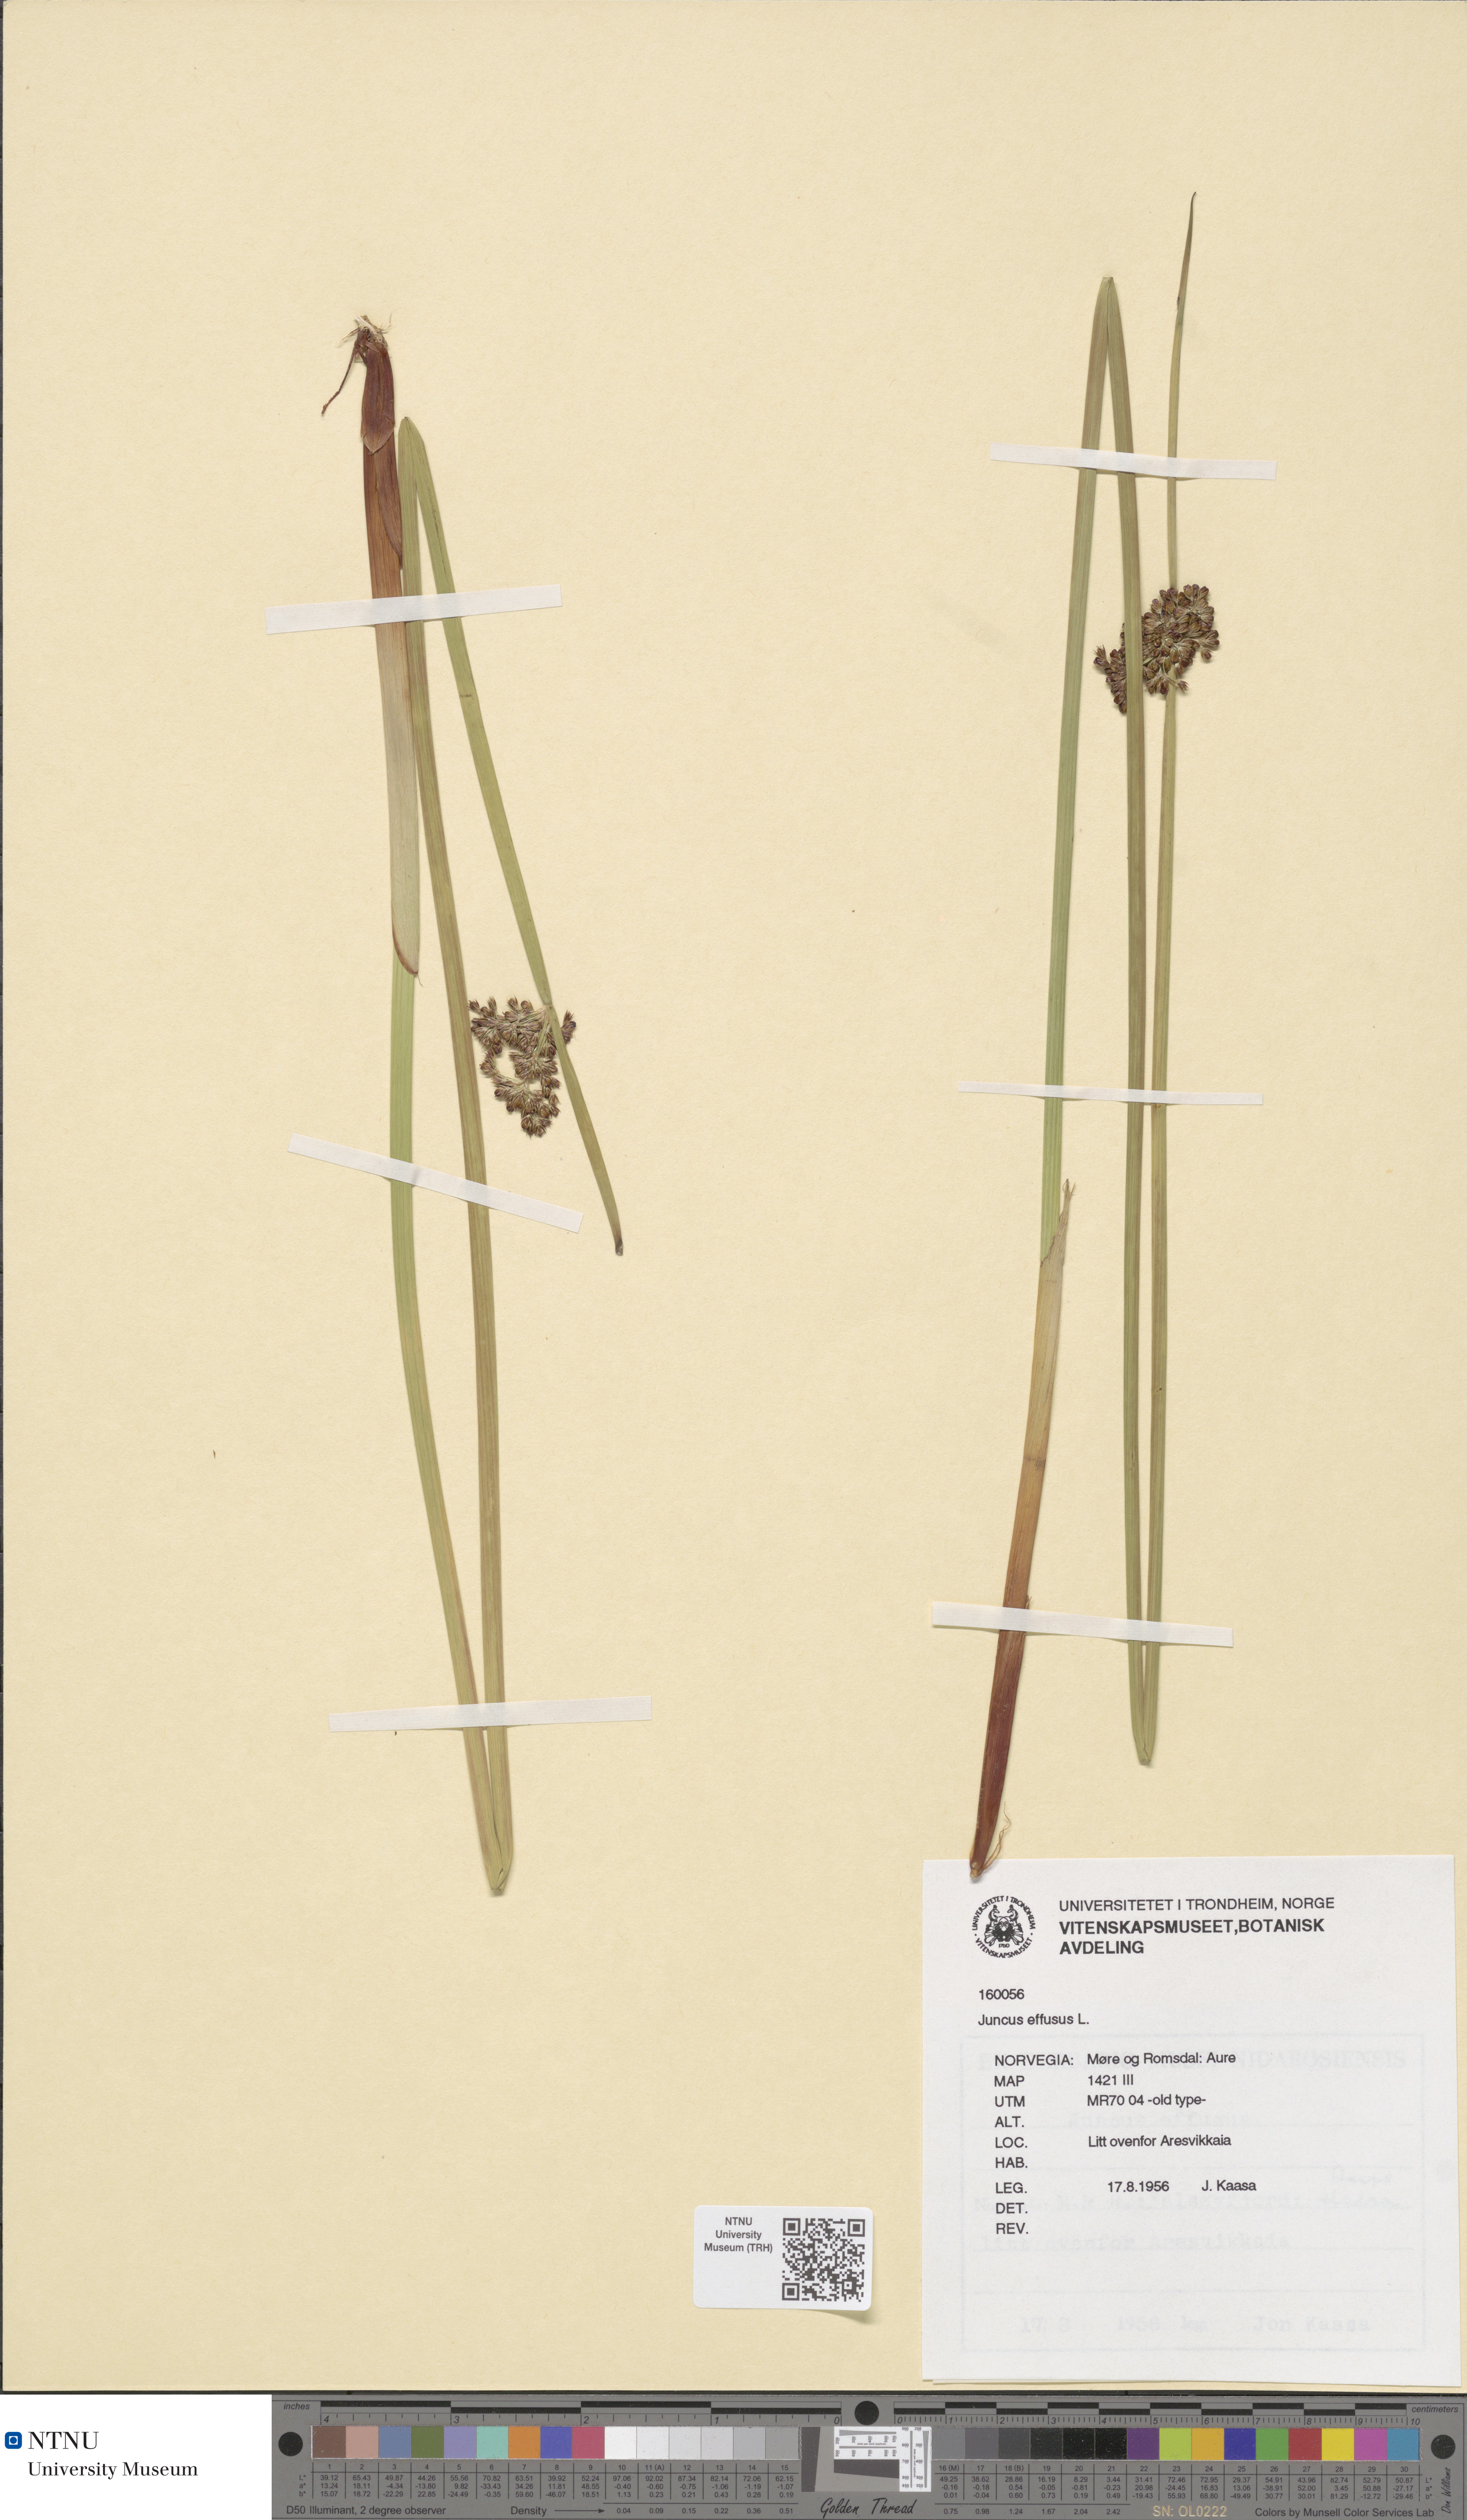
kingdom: Plantae
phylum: Tracheophyta
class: Liliopsida
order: Poales
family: Juncaceae
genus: Juncus
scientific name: Juncus effusus
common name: Soft rush
